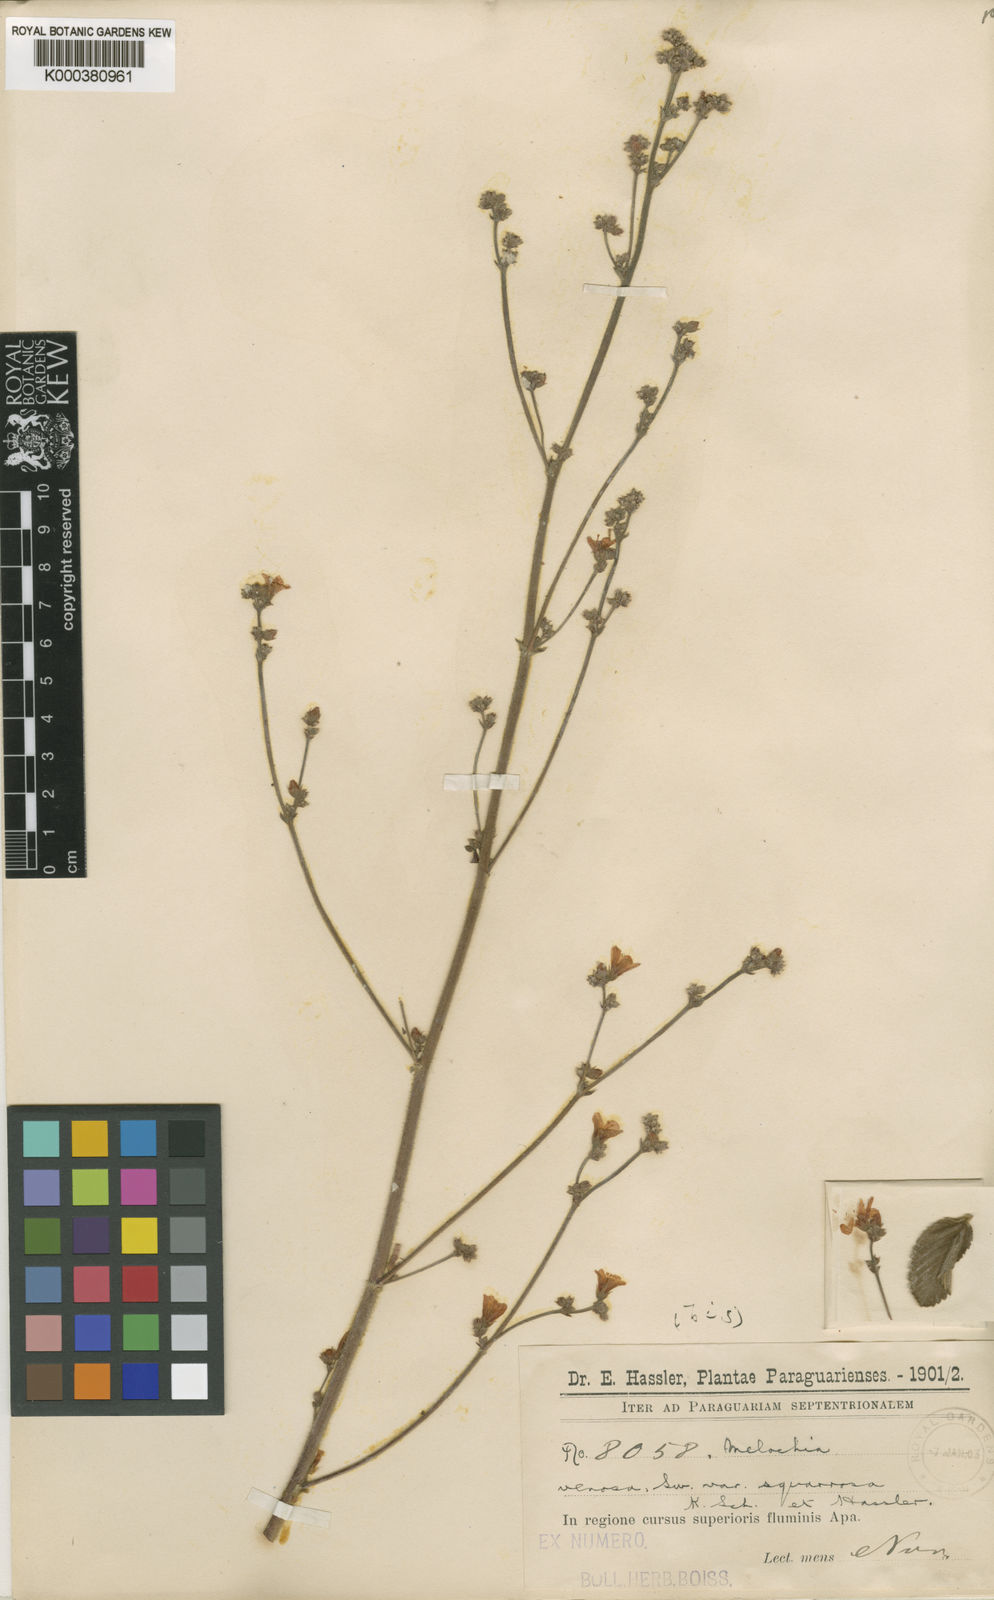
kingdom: Plantae
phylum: Tracheophyta
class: Magnoliopsida
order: Malvales
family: Malvaceae
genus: Melochia
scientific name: Melochia pilosa
